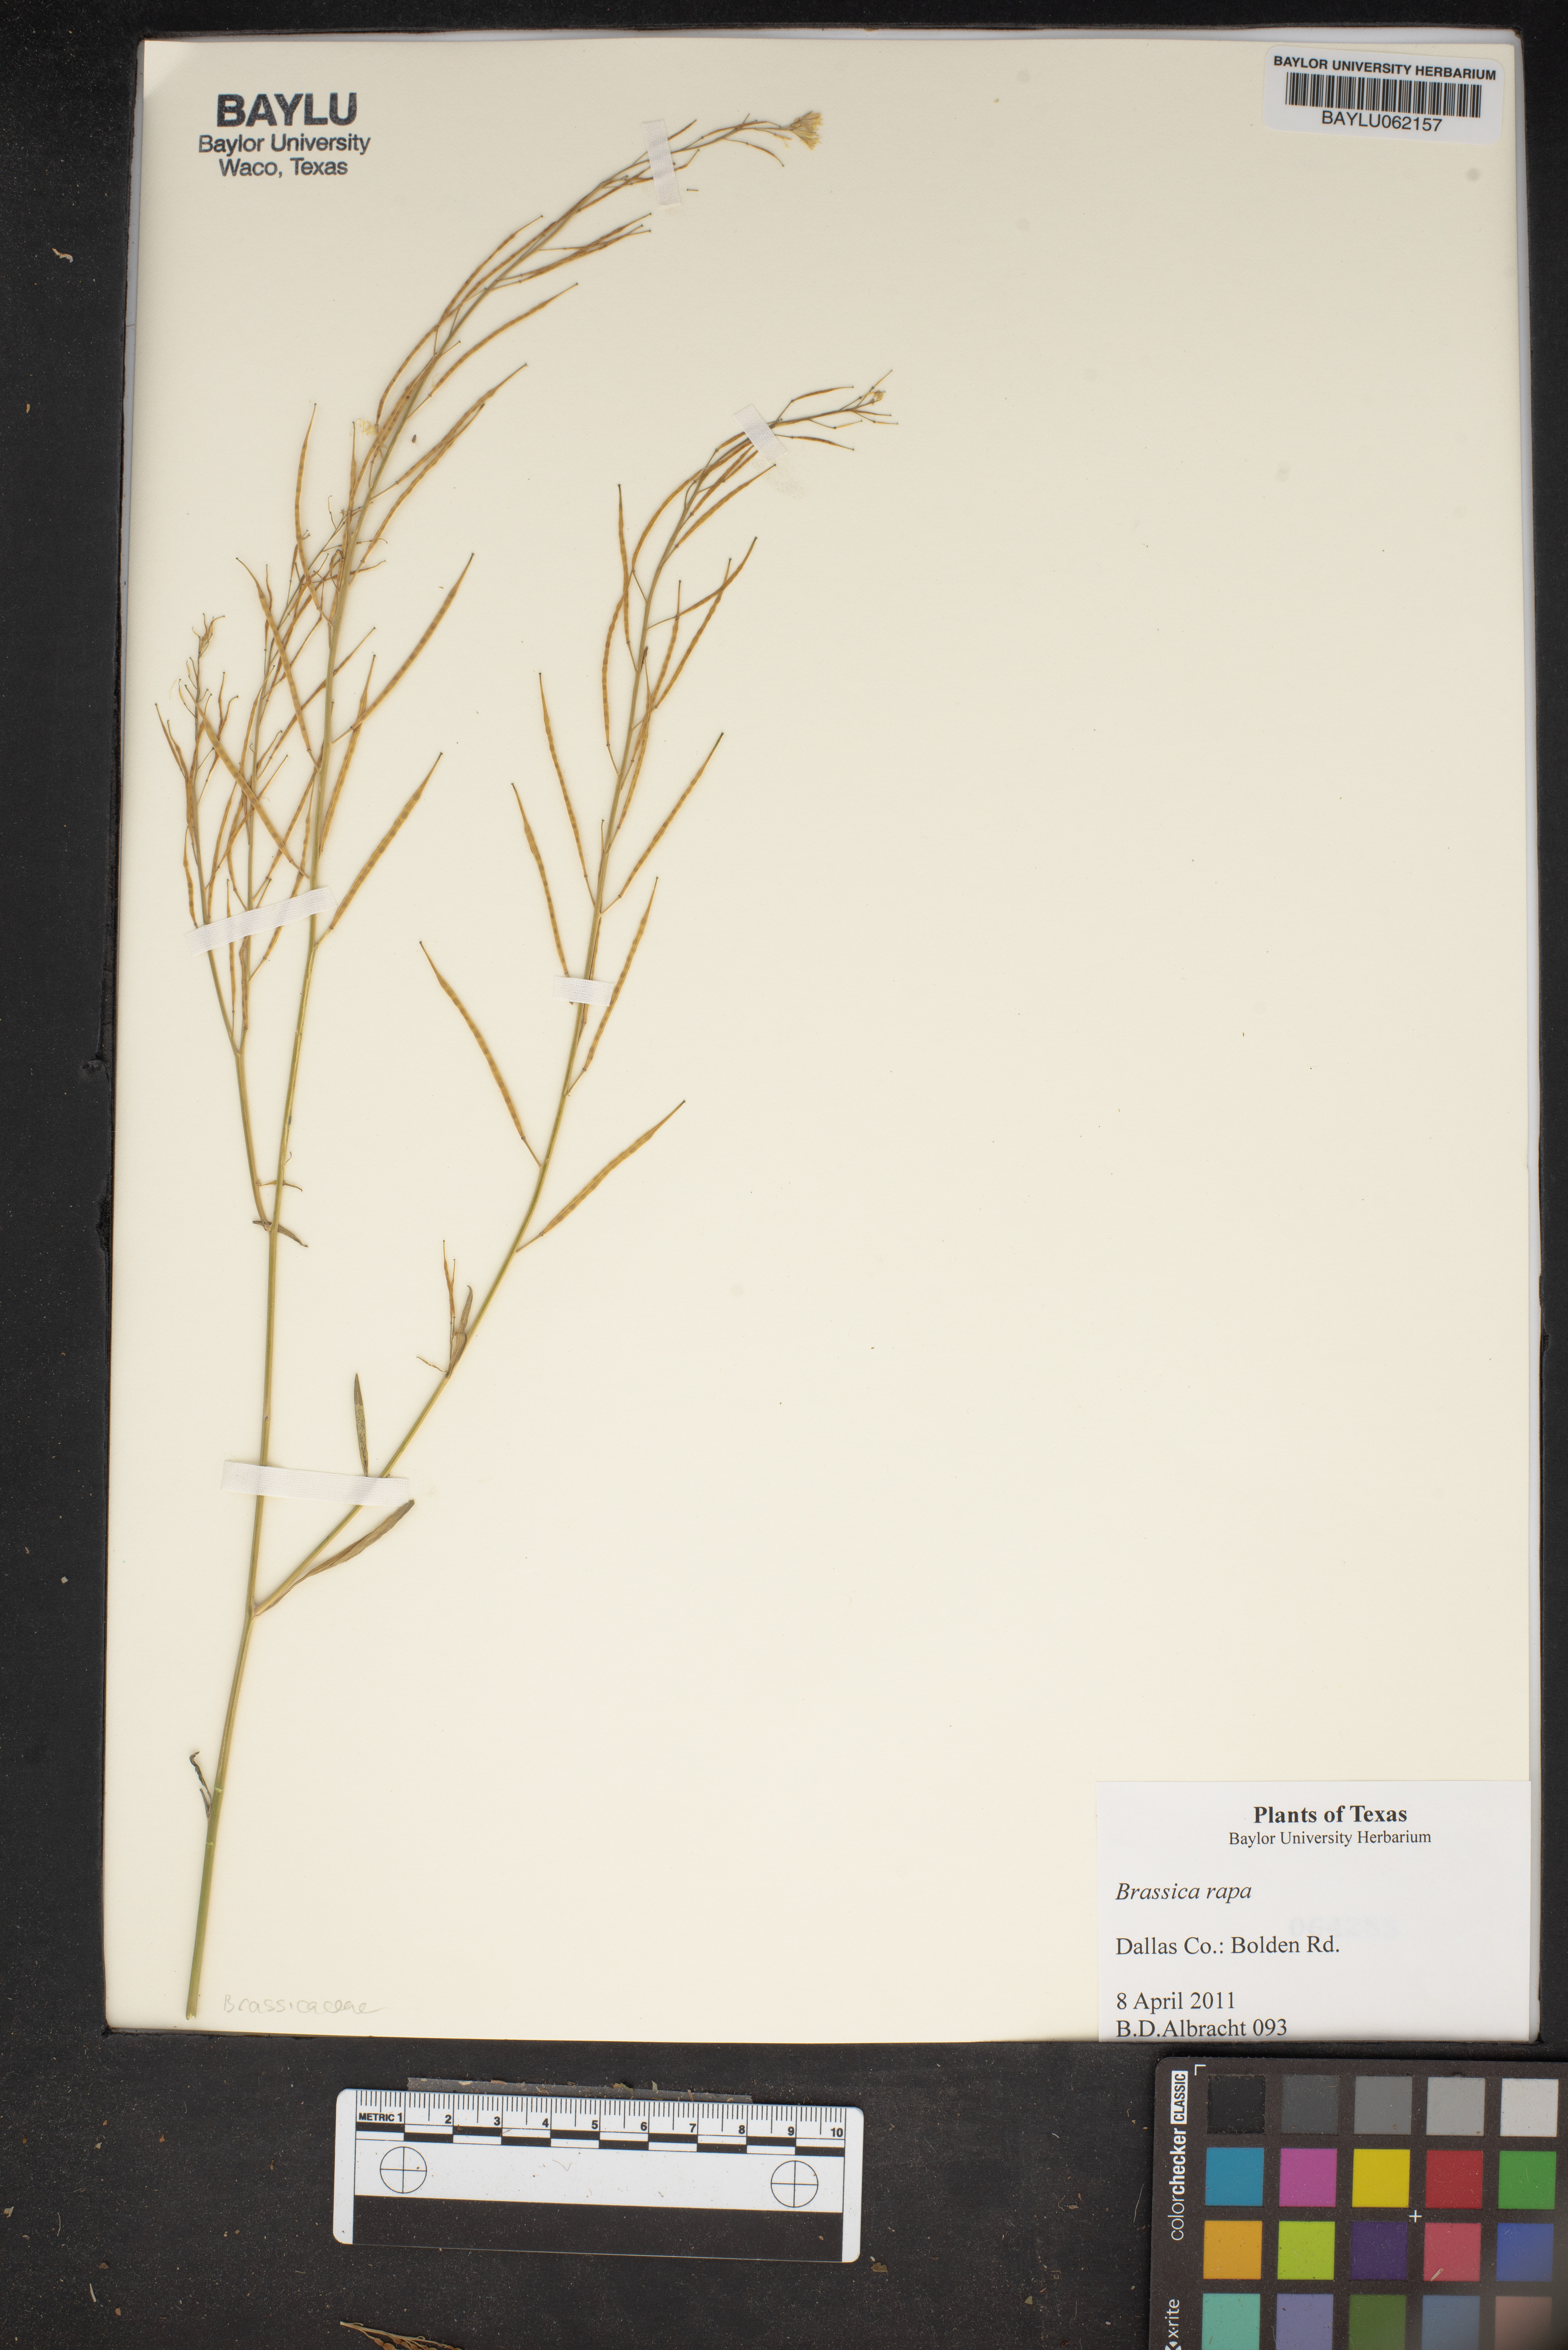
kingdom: Plantae
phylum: Tracheophyta
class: Magnoliopsida
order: Brassicales
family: Brassicaceae
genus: Brassica
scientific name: Brassica rapa
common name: Field mustard
